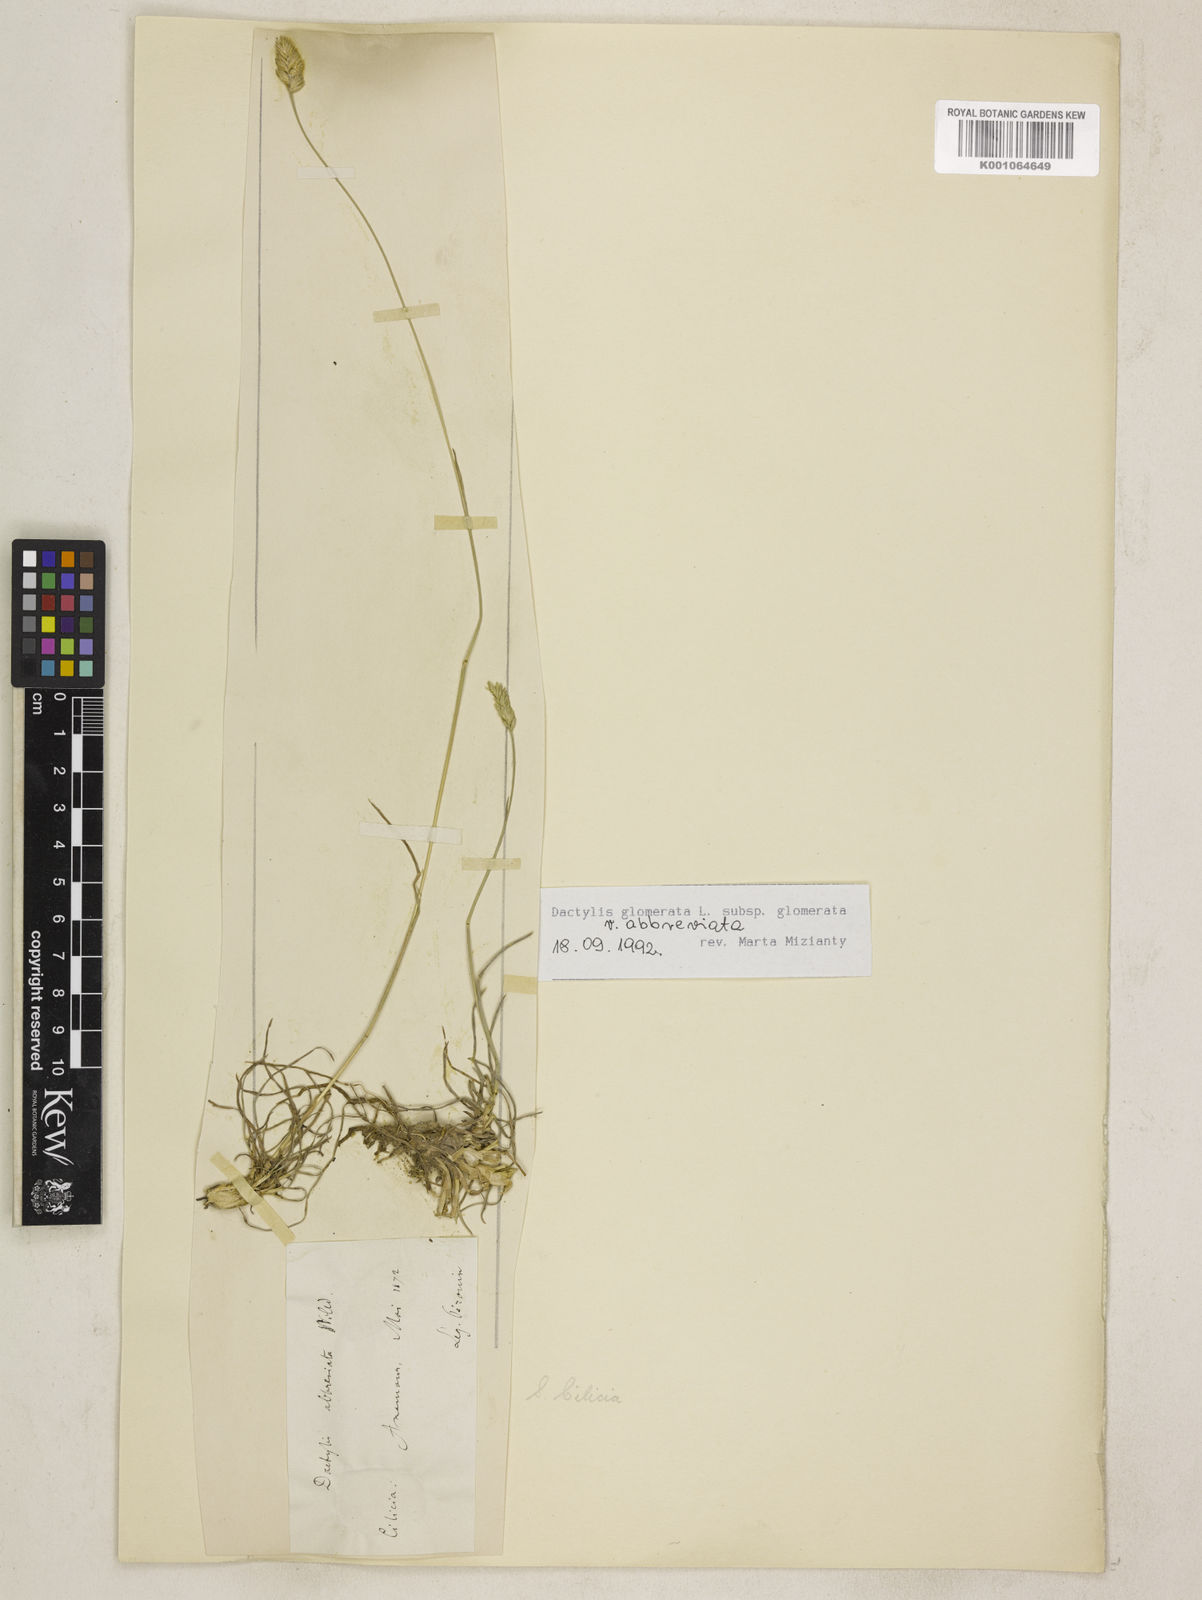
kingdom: Plantae
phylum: Tracheophyta
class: Liliopsida
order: Poales
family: Poaceae
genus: Dactylis
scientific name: Dactylis glomerata
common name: Orchardgrass
